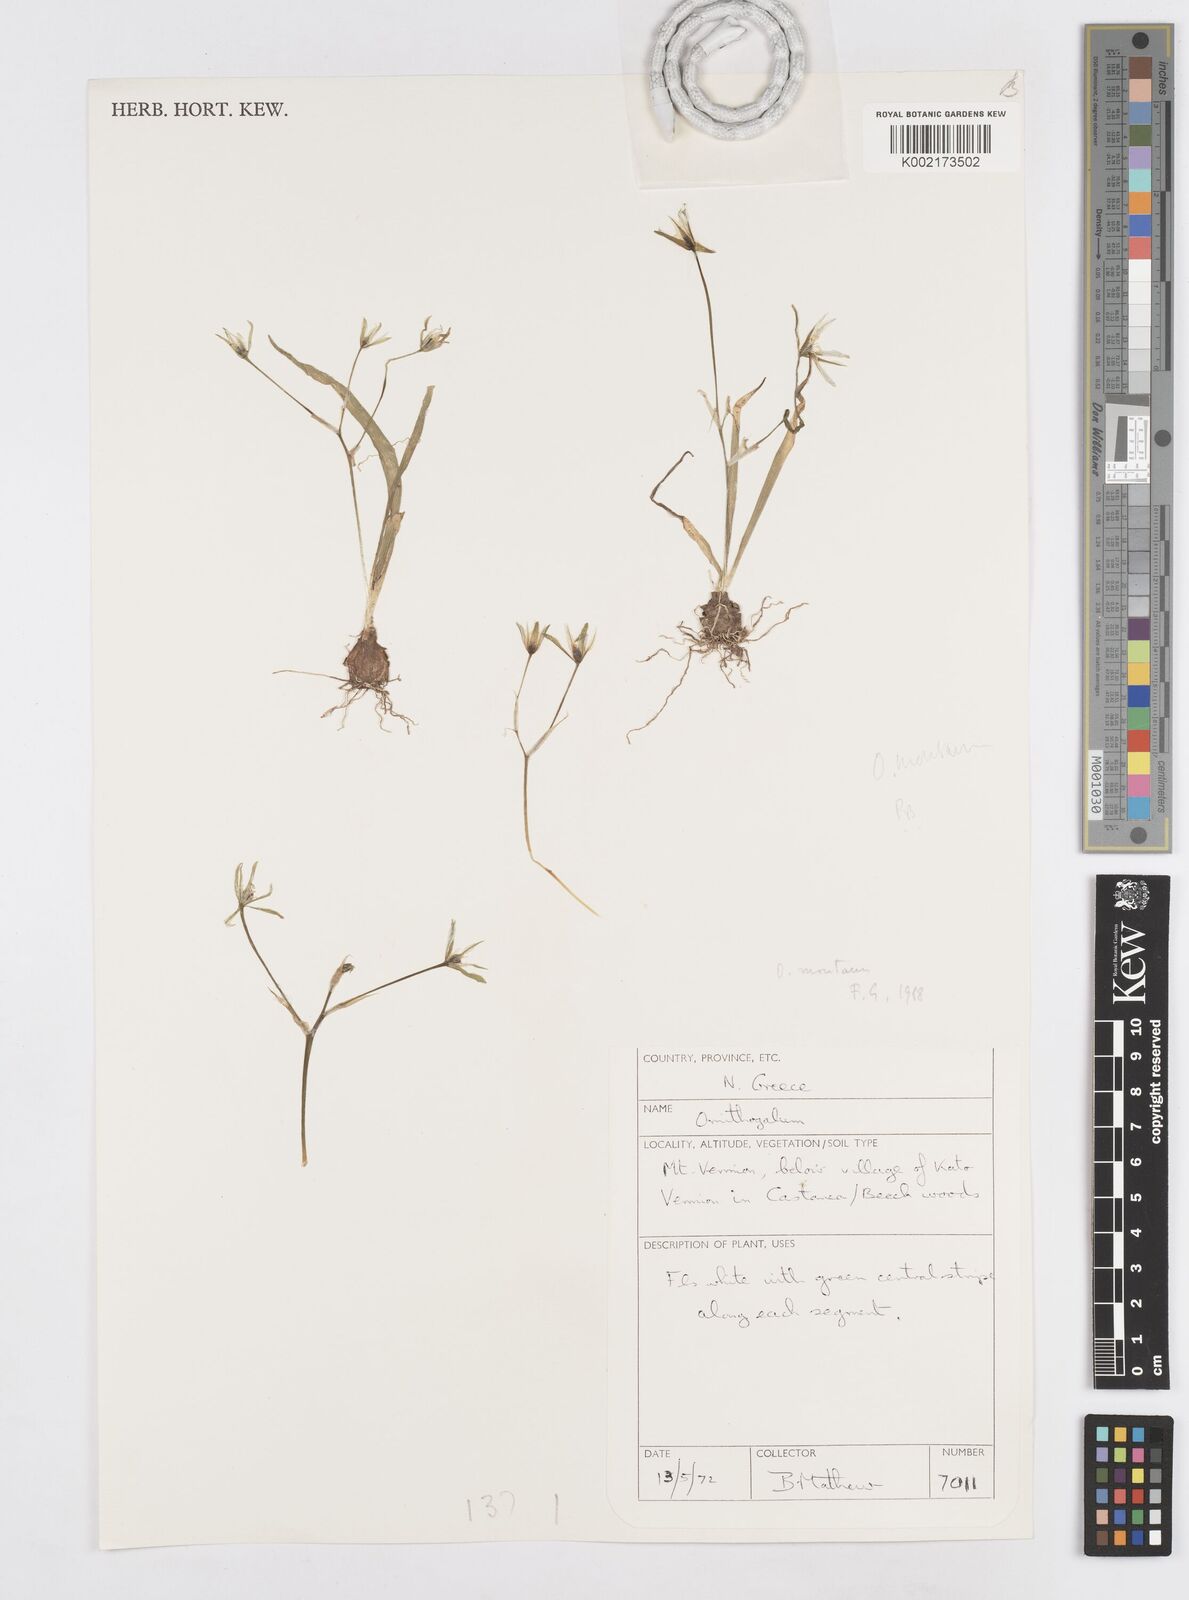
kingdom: Plantae
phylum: Tracheophyta
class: Liliopsida
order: Asparagales
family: Asparagaceae
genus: Ornithogalum
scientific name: Ornithogalum montanum
